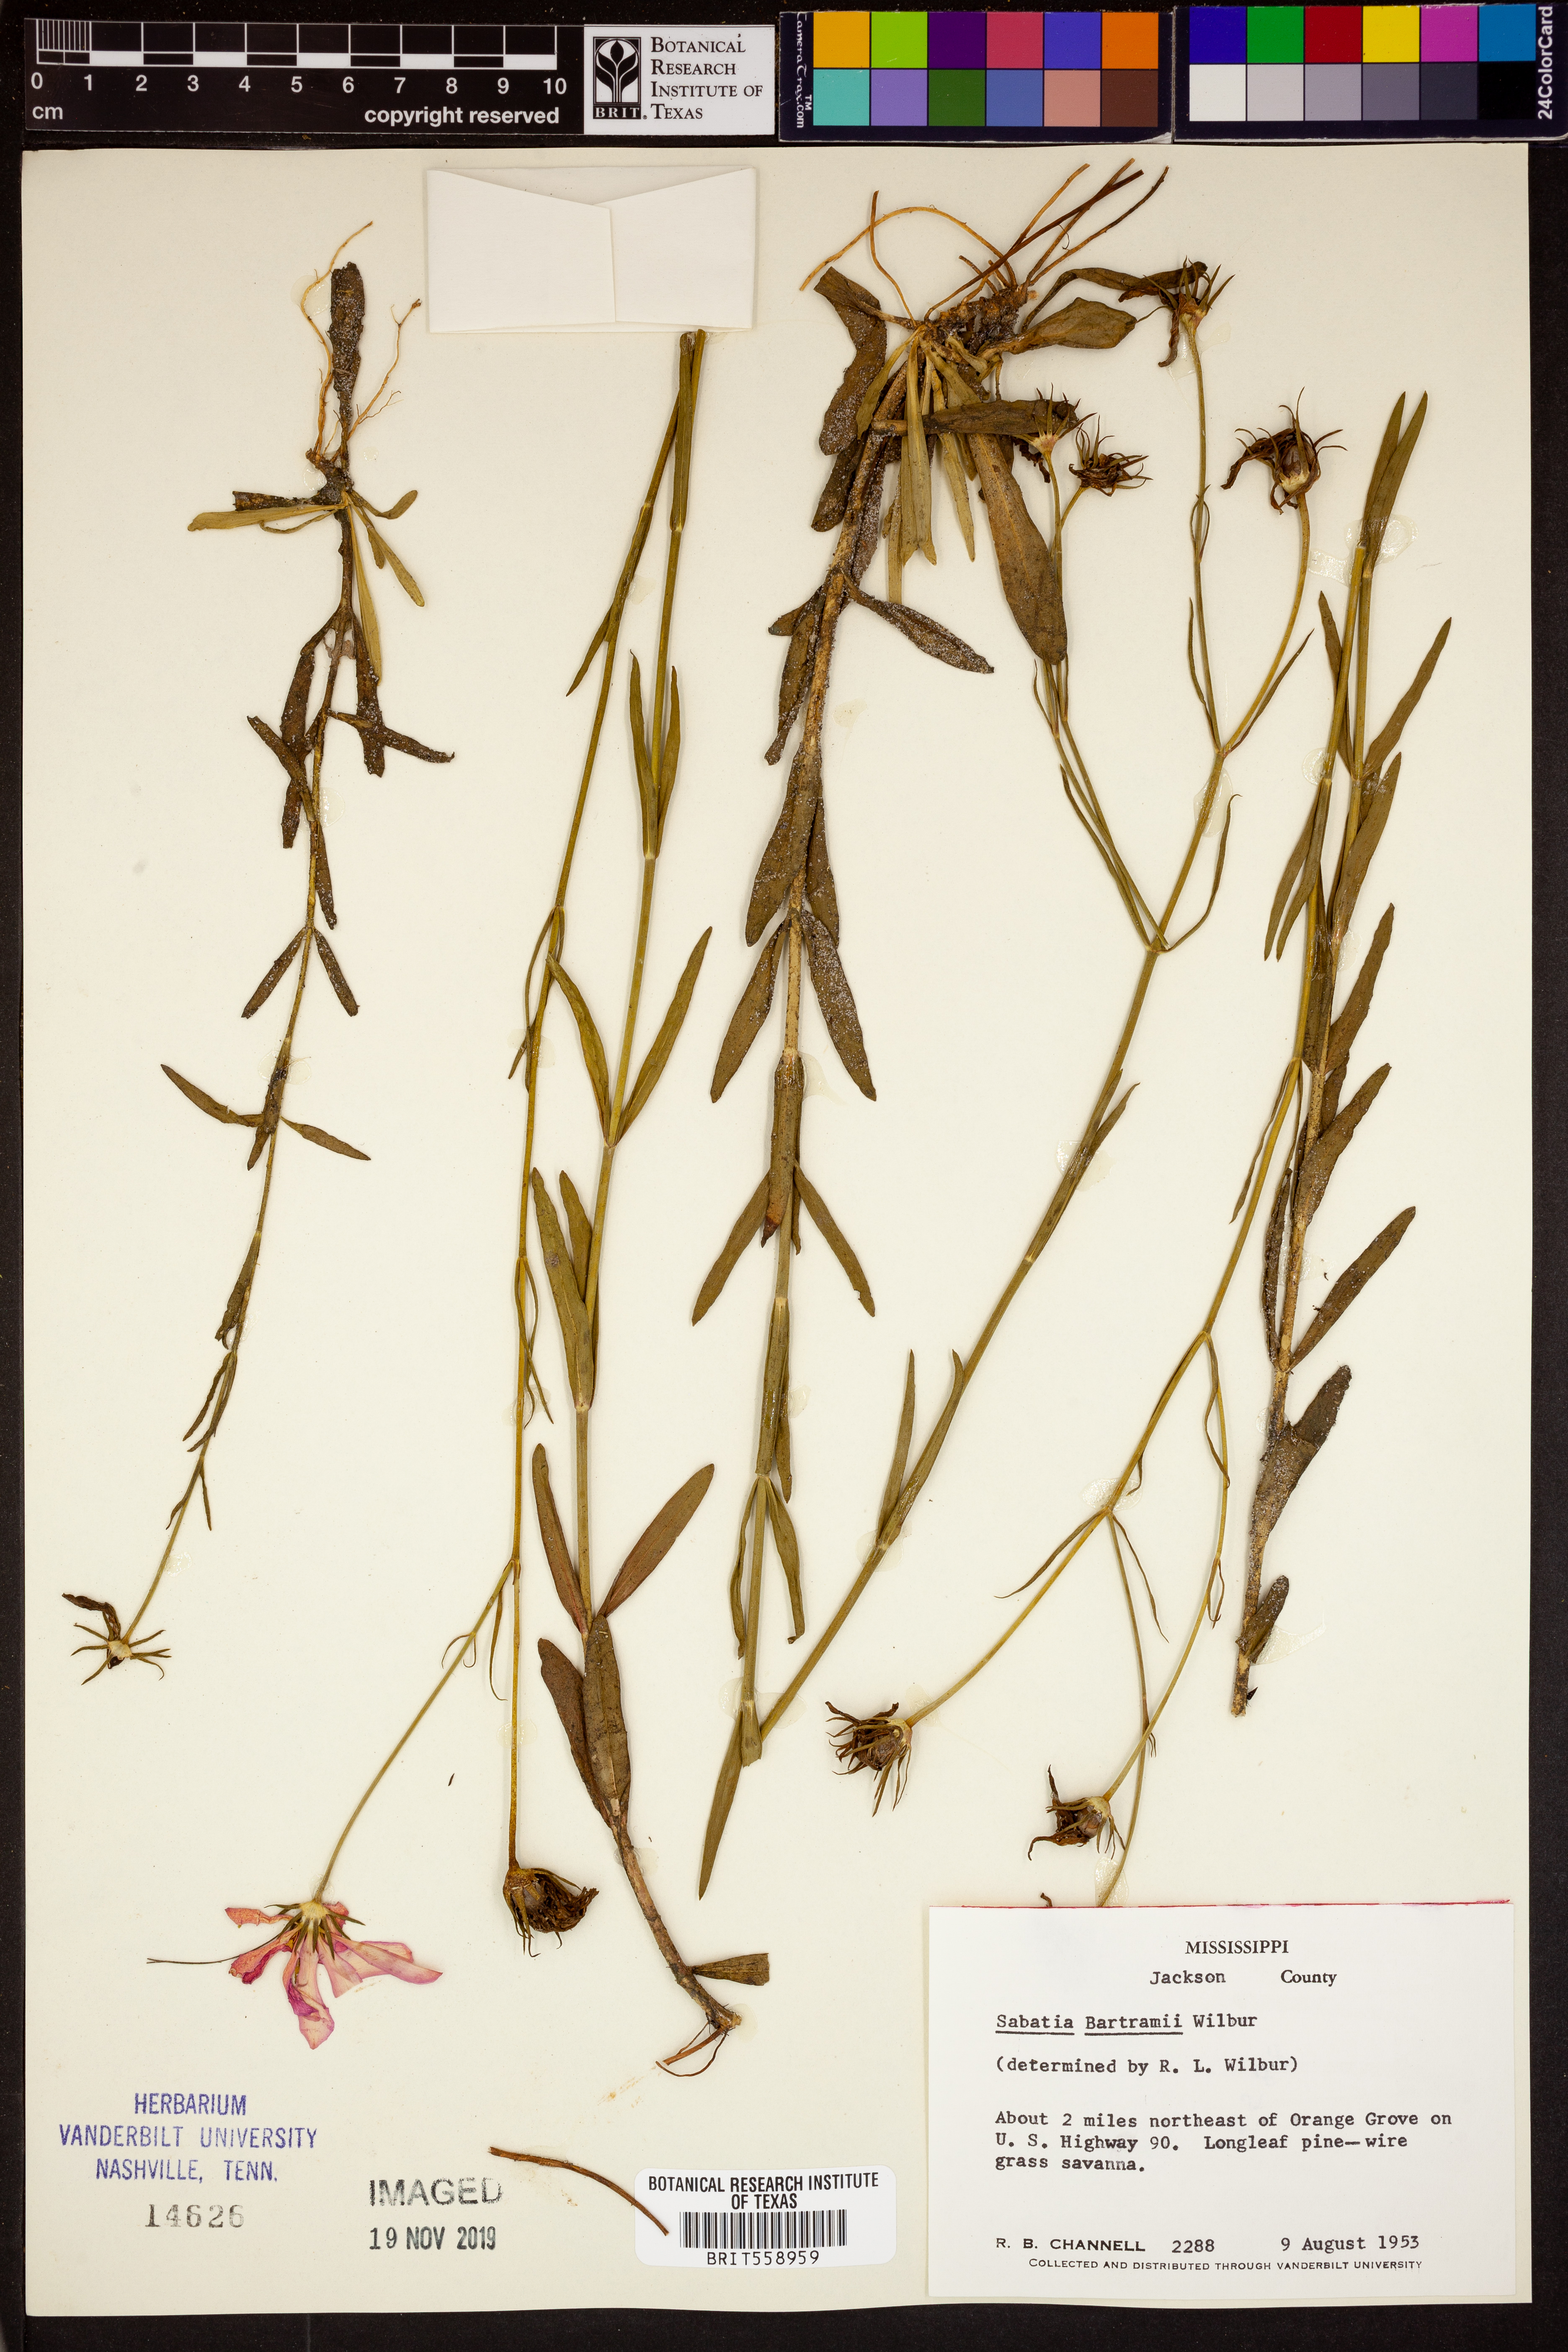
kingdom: Plantae
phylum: Tracheophyta
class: Magnoliopsida
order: Gentianales
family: Gentianaceae
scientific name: Gentianaceae
